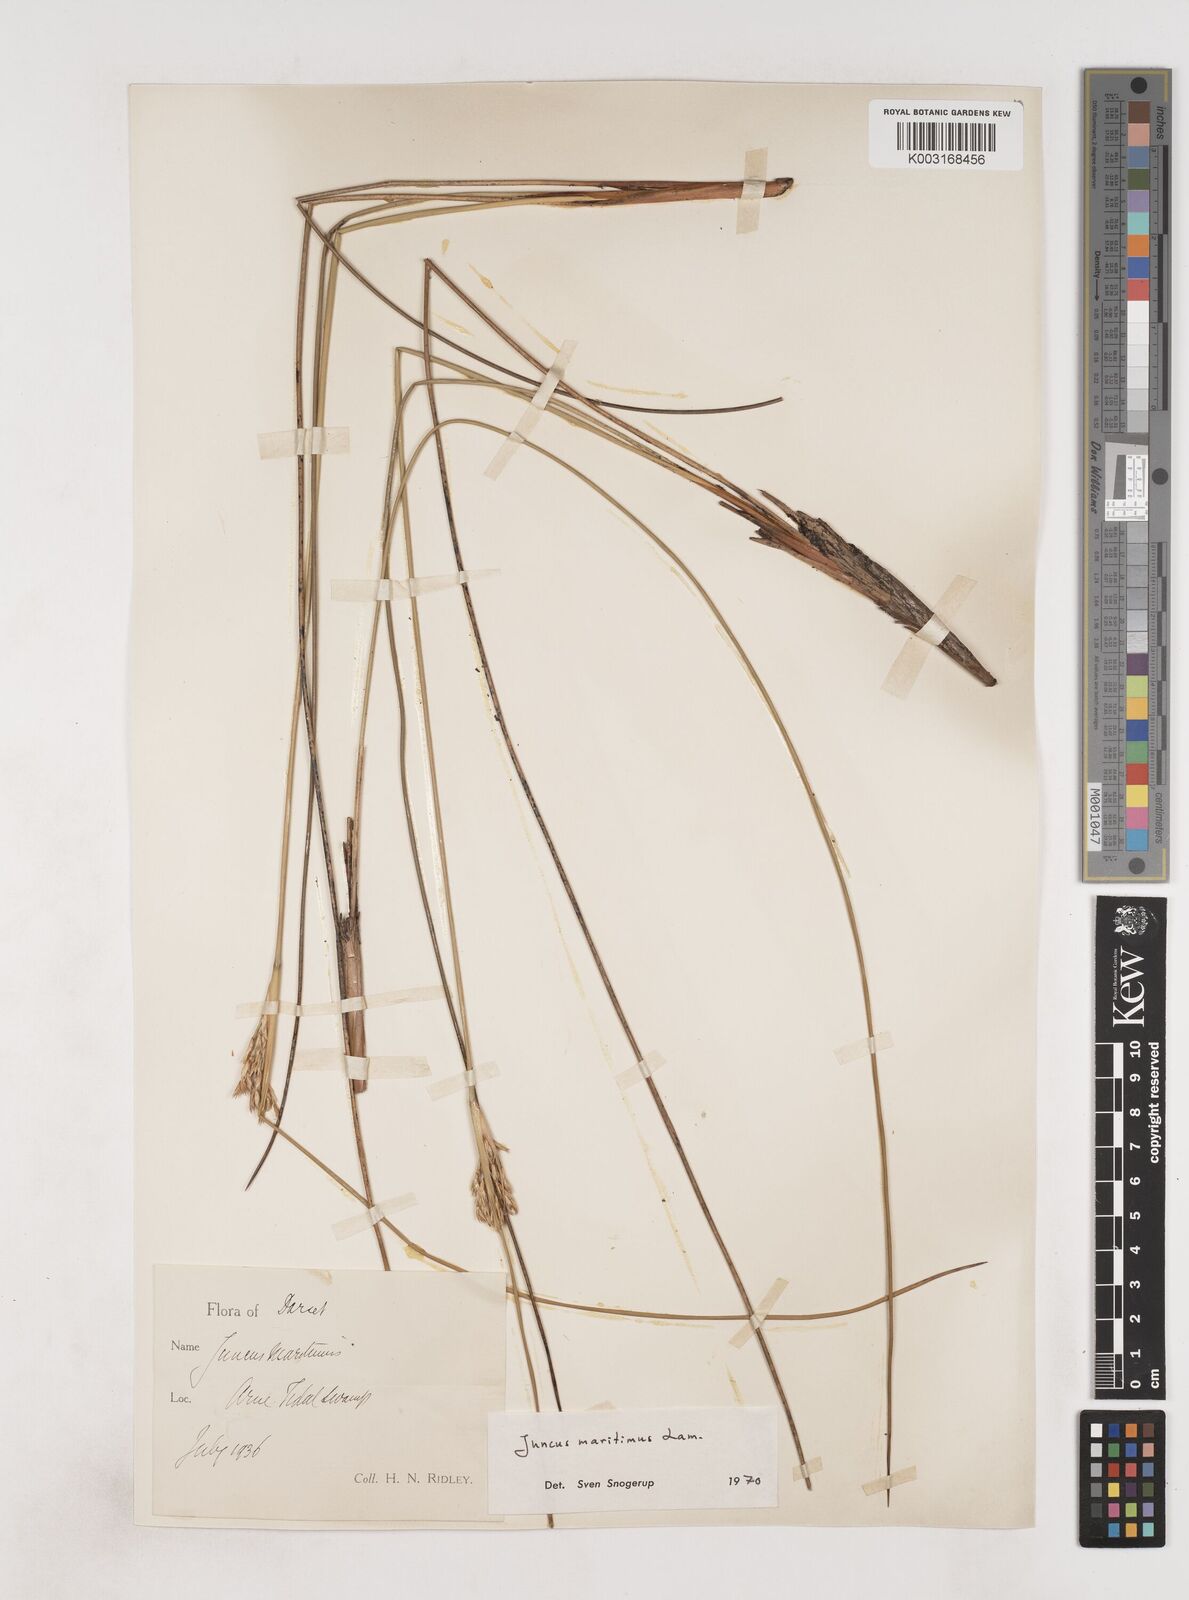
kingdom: Plantae
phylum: Tracheophyta
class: Liliopsida
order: Poales
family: Juncaceae
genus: Juncus
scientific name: Juncus maritimus
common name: Sea rush
